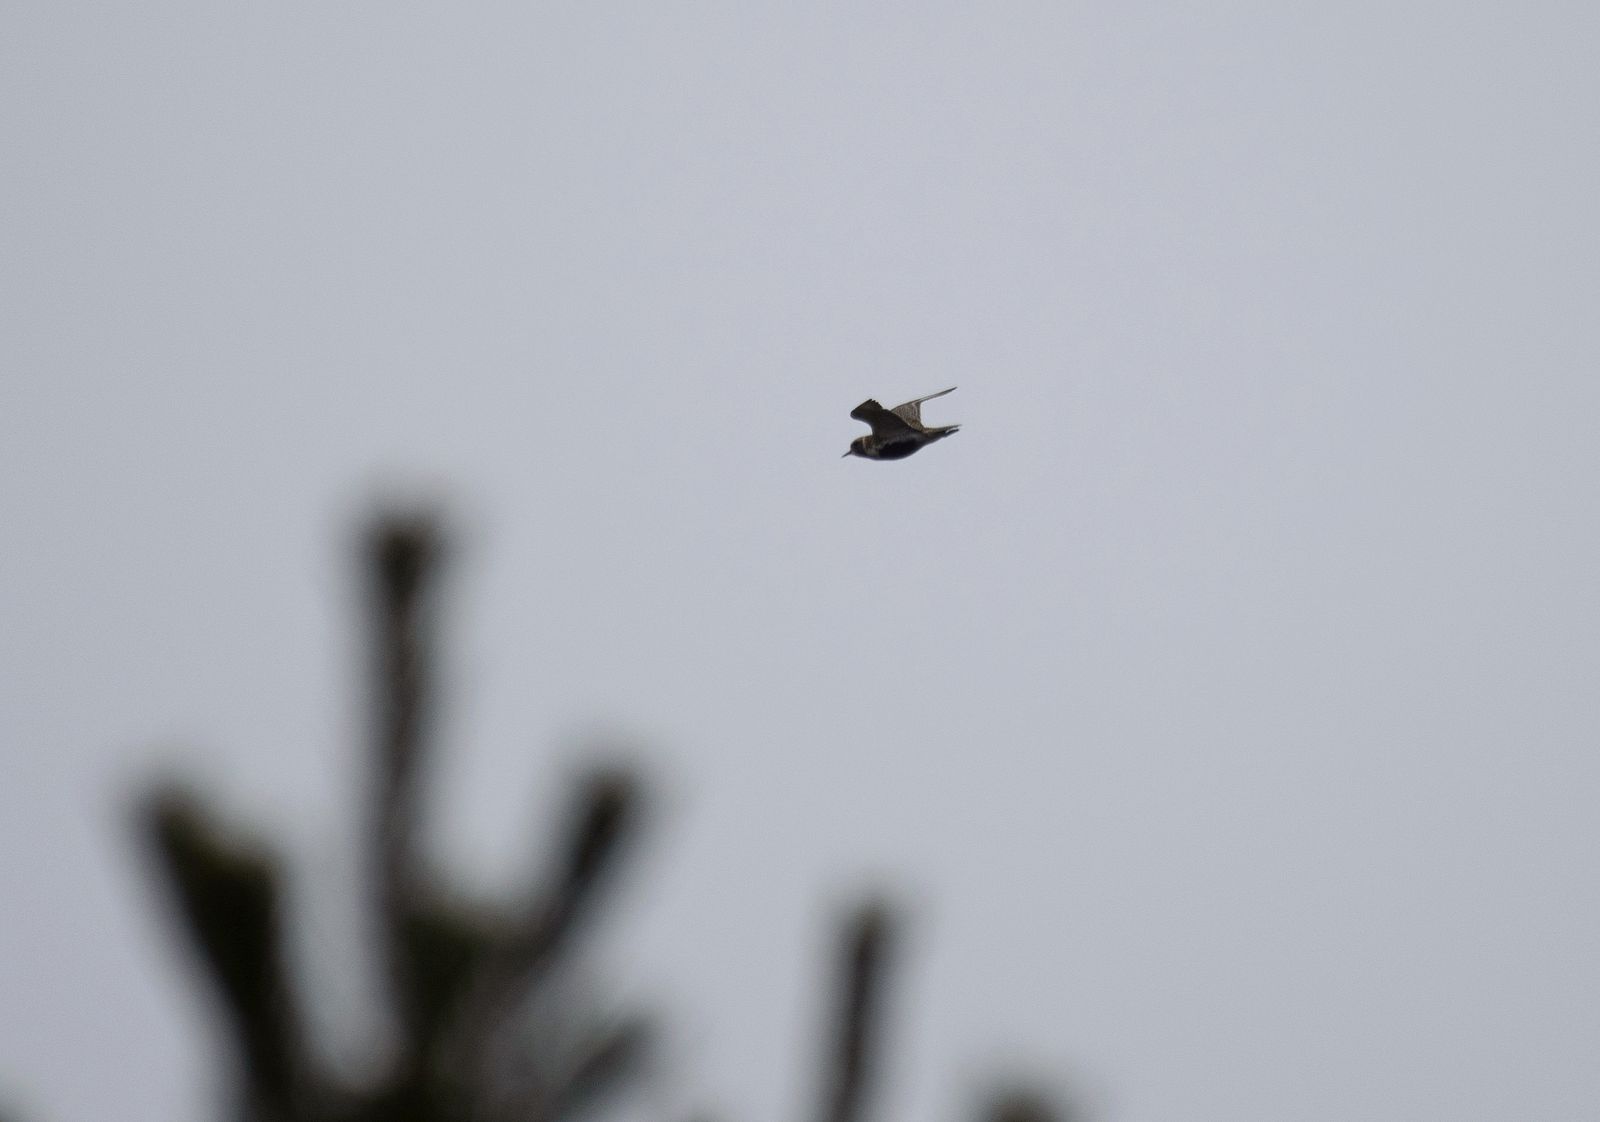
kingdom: Animalia
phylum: Chordata
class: Aves
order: Charadriiformes
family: Charadriidae
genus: Pluvialis
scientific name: Pluvialis apricaria
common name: European golden plover
